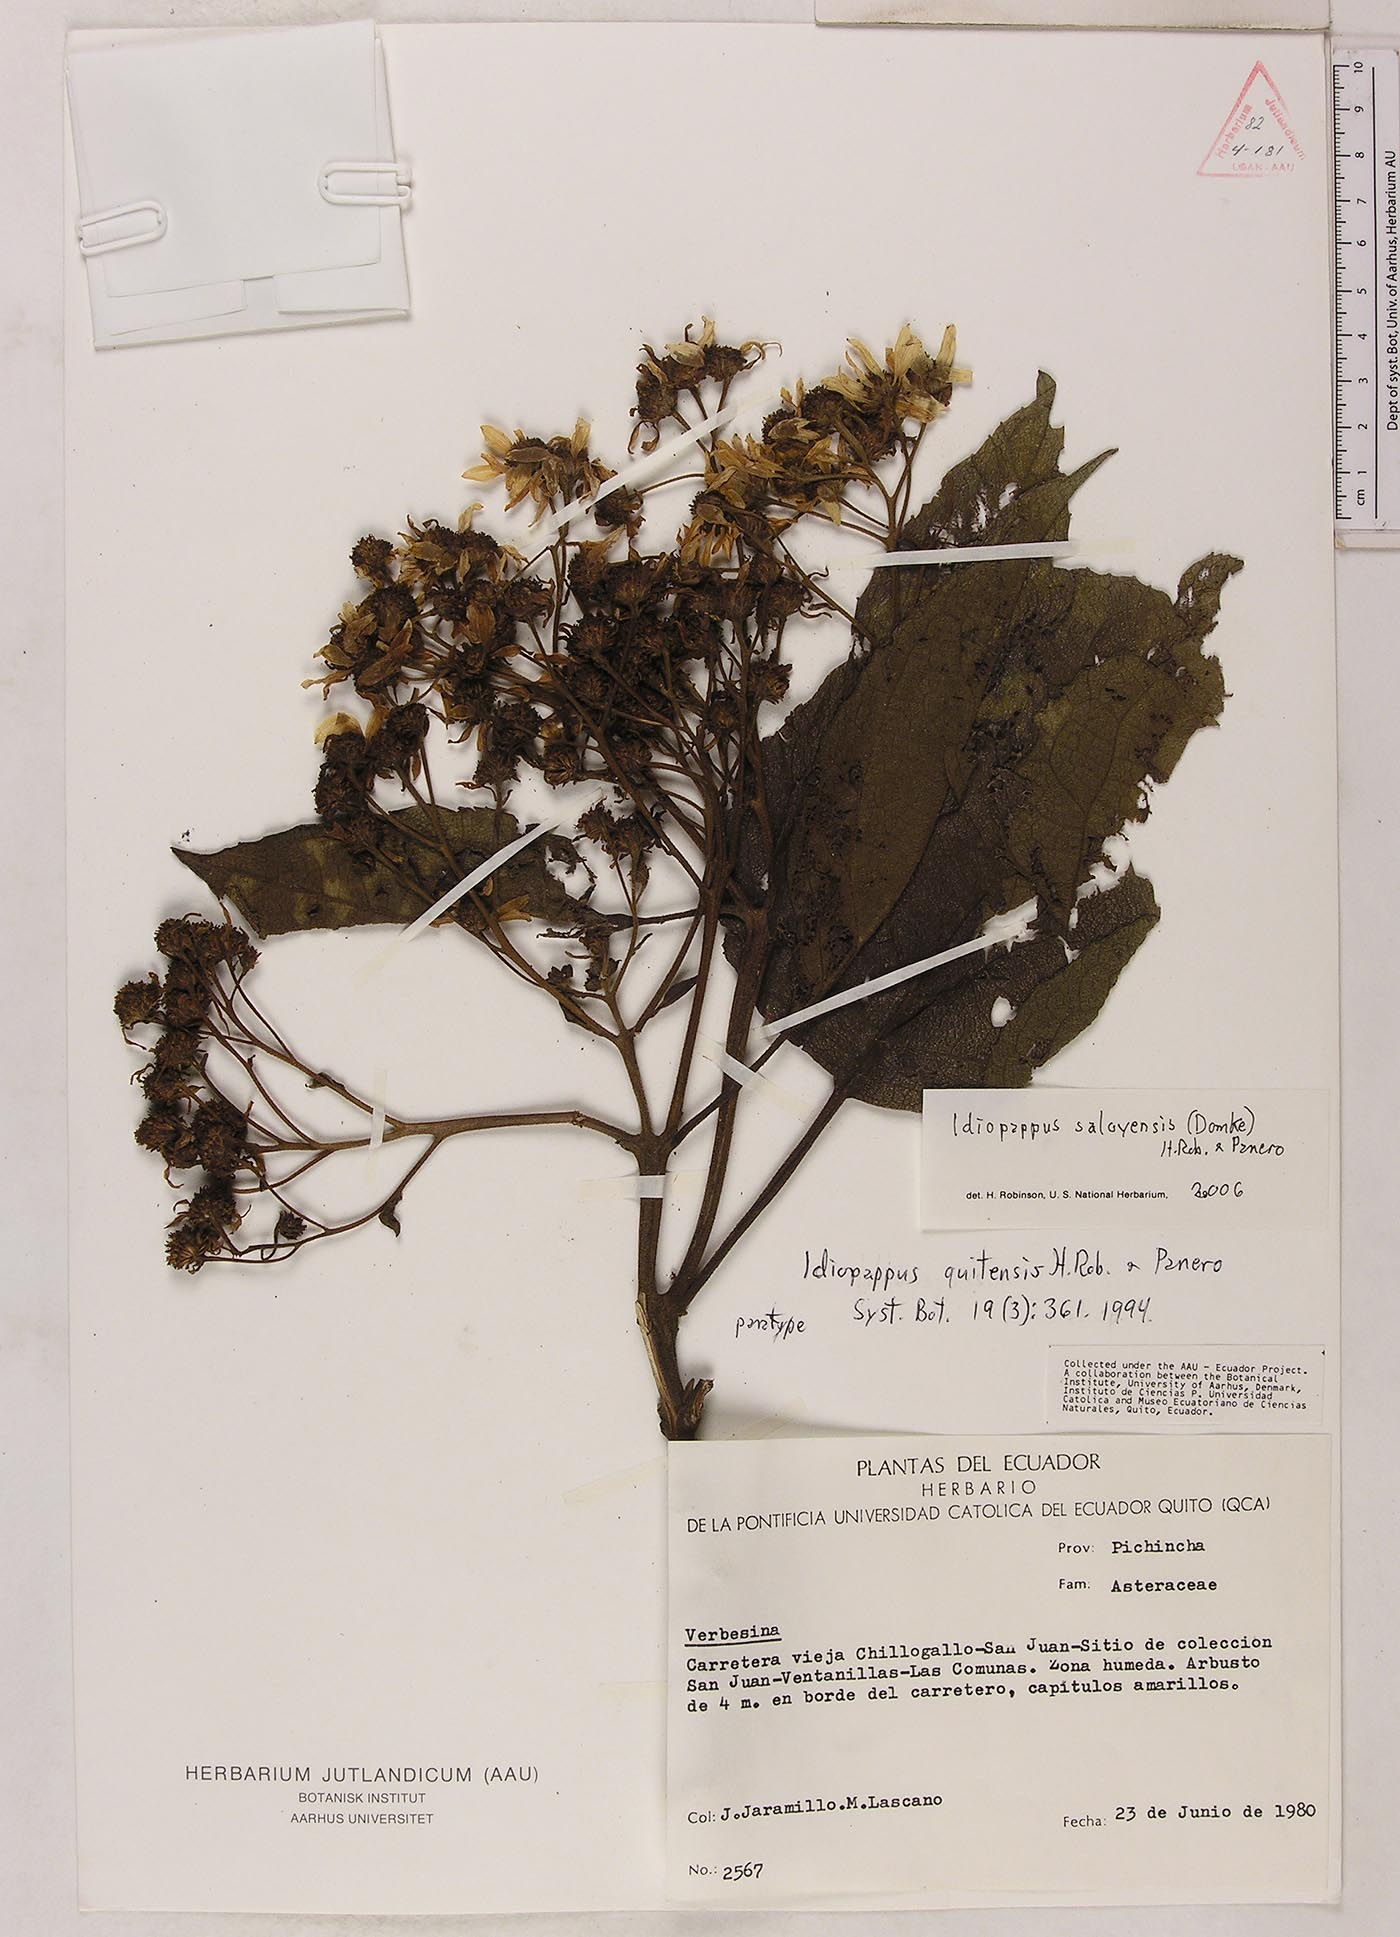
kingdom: Plantae
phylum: Tracheophyta
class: Magnoliopsida
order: Asterales
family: Asteraceae
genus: Idiopappus
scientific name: Idiopappus saloyensis
